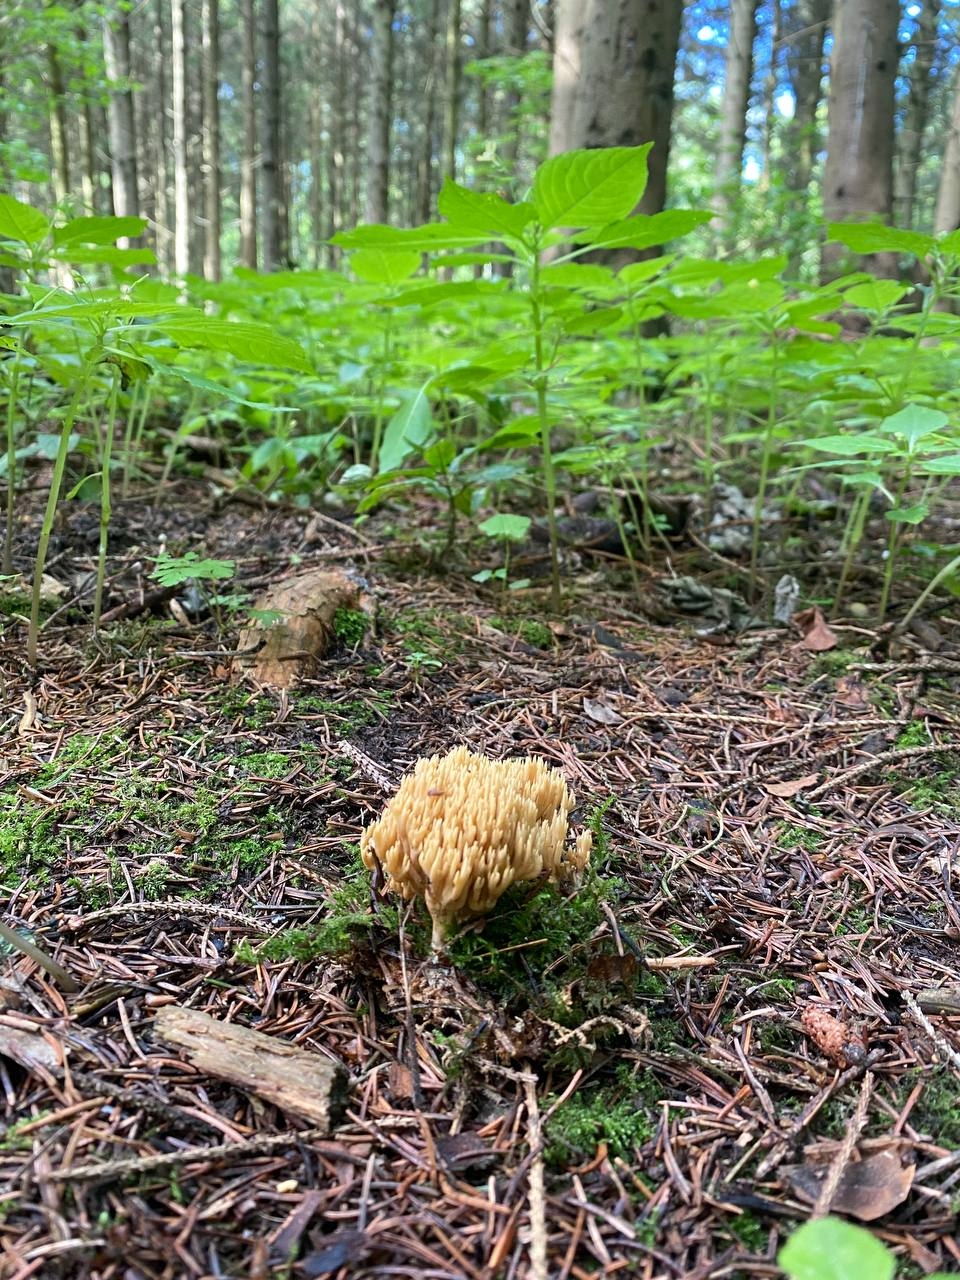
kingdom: Fungi
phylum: Basidiomycota
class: Agaricomycetes
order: Gomphales
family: Gomphaceae
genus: Phaeoclavulina
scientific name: Phaeoclavulina eumorpha
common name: gran-koralsvamp
